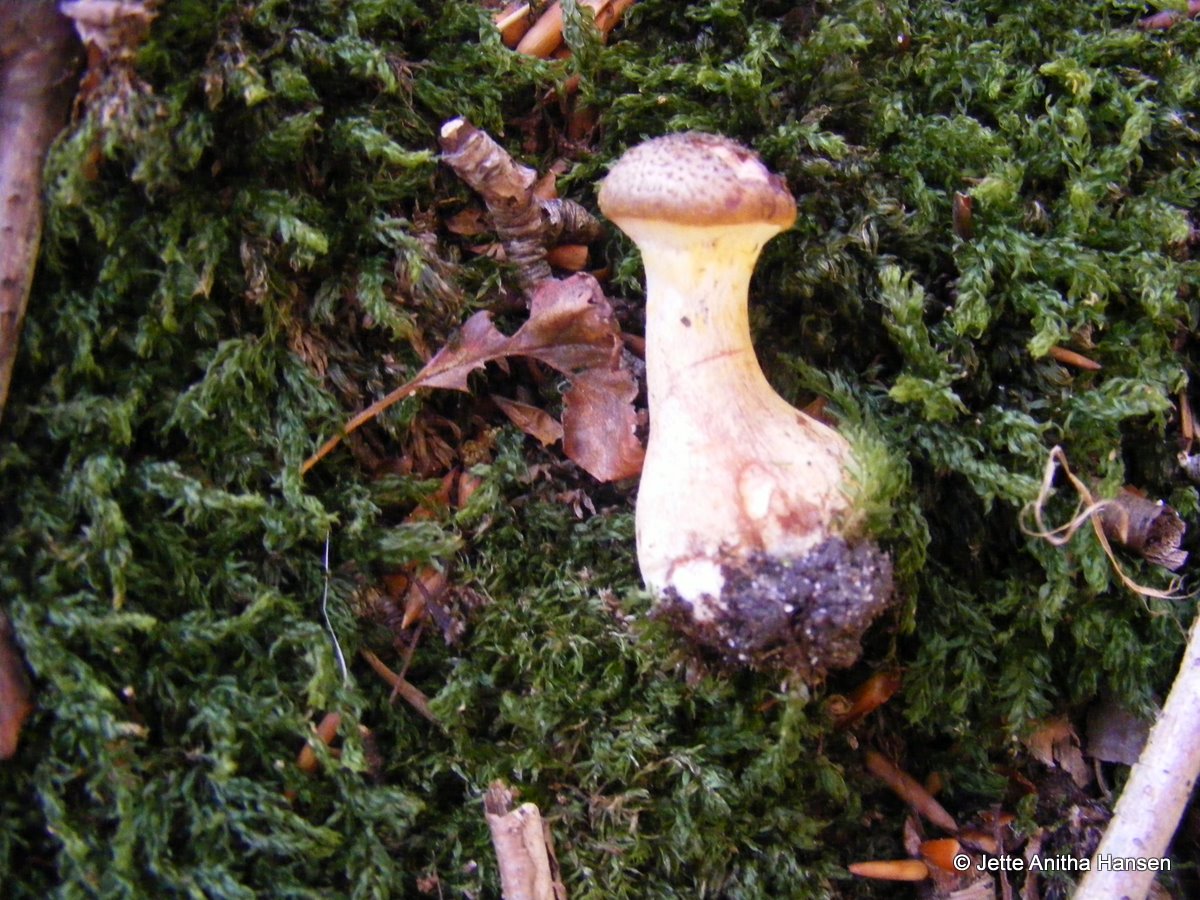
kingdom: Fungi
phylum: Basidiomycota
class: Agaricomycetes
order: Agaricales
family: Physalacriaceae
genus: Armillaria
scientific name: Armillaria lutea
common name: køllestokket honningsvamp
